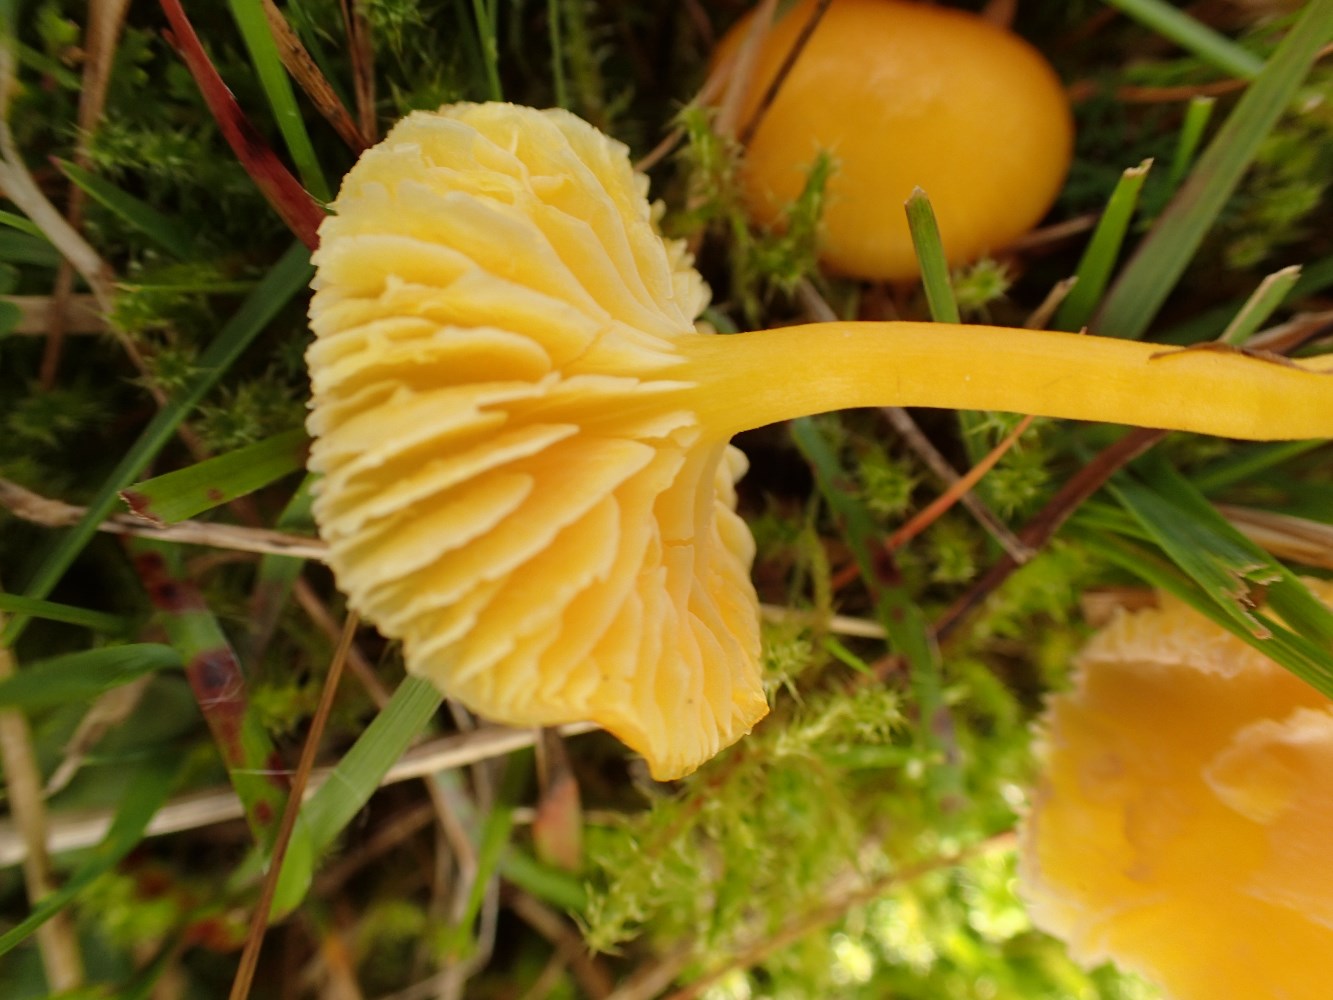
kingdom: Fungi
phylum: Basidiomycota
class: Agaricomycetes
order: Agaricales
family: Hygrophoraceae
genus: Hygrocybe
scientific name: Hygrocybe chlorophana
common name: gul vokshat
